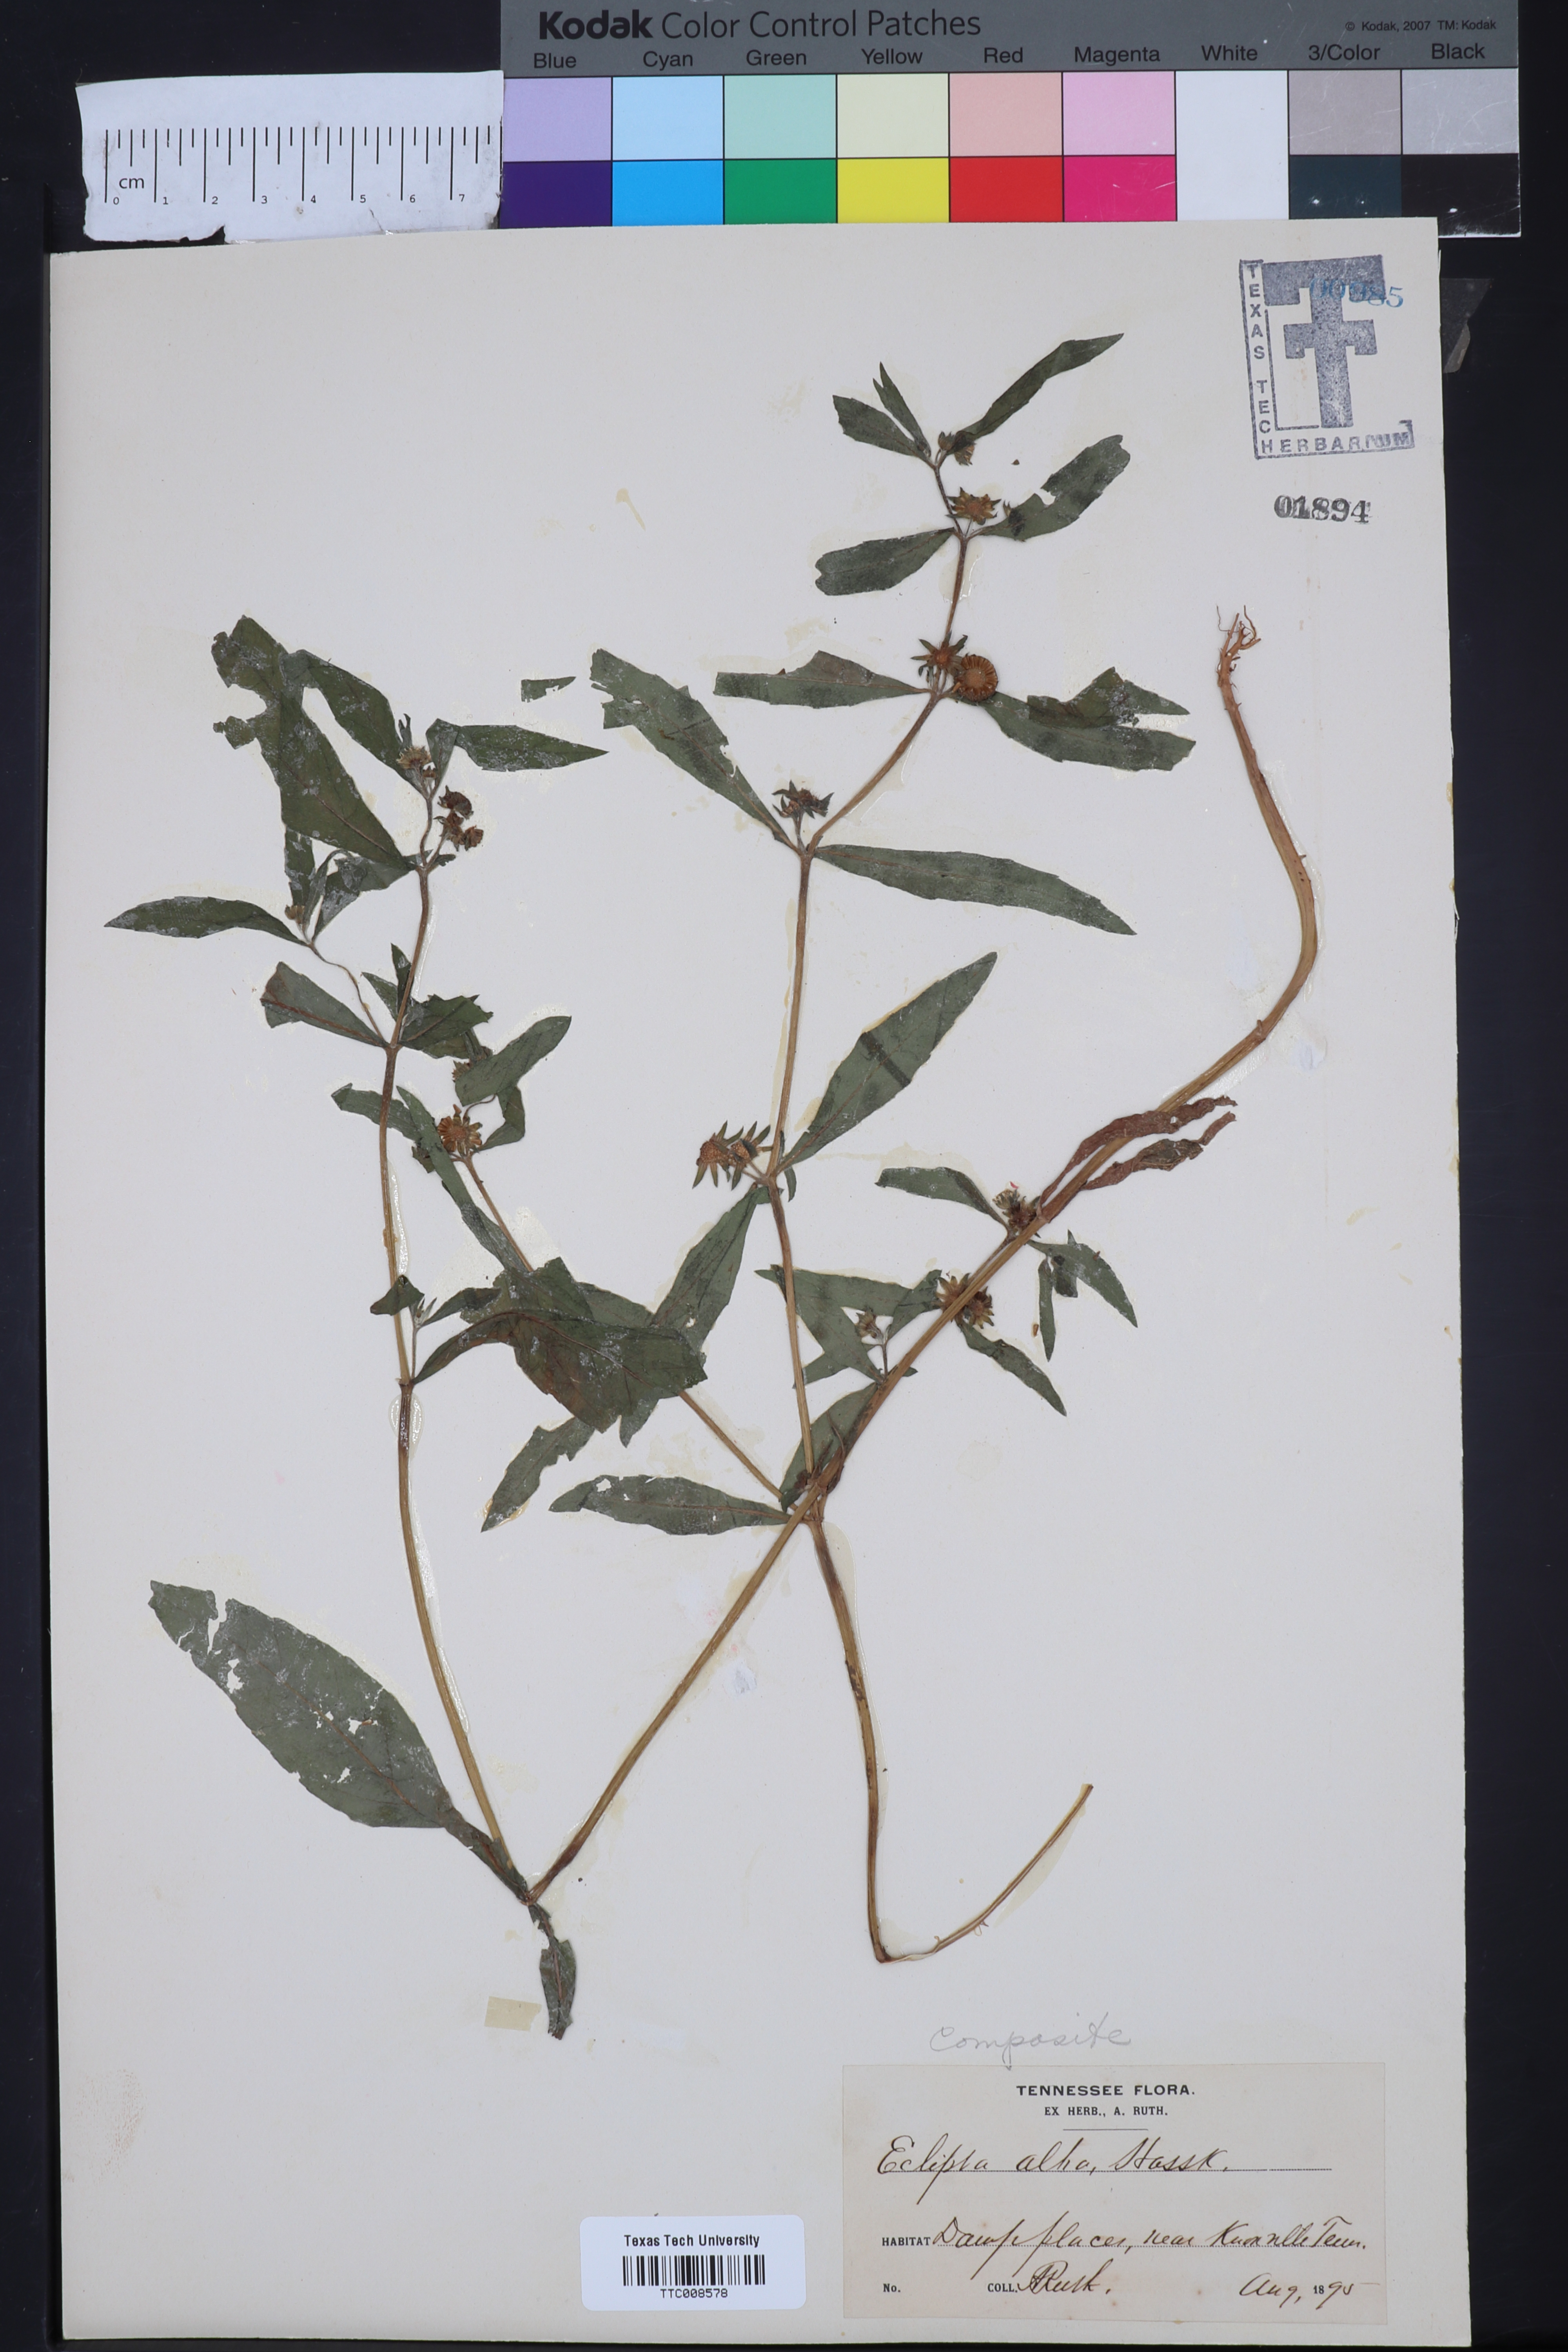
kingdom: Plantae
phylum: Tracheophyta
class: Magnoliopsida
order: Asterales
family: Asteraceae
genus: Eclipta
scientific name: Eclipta alba
